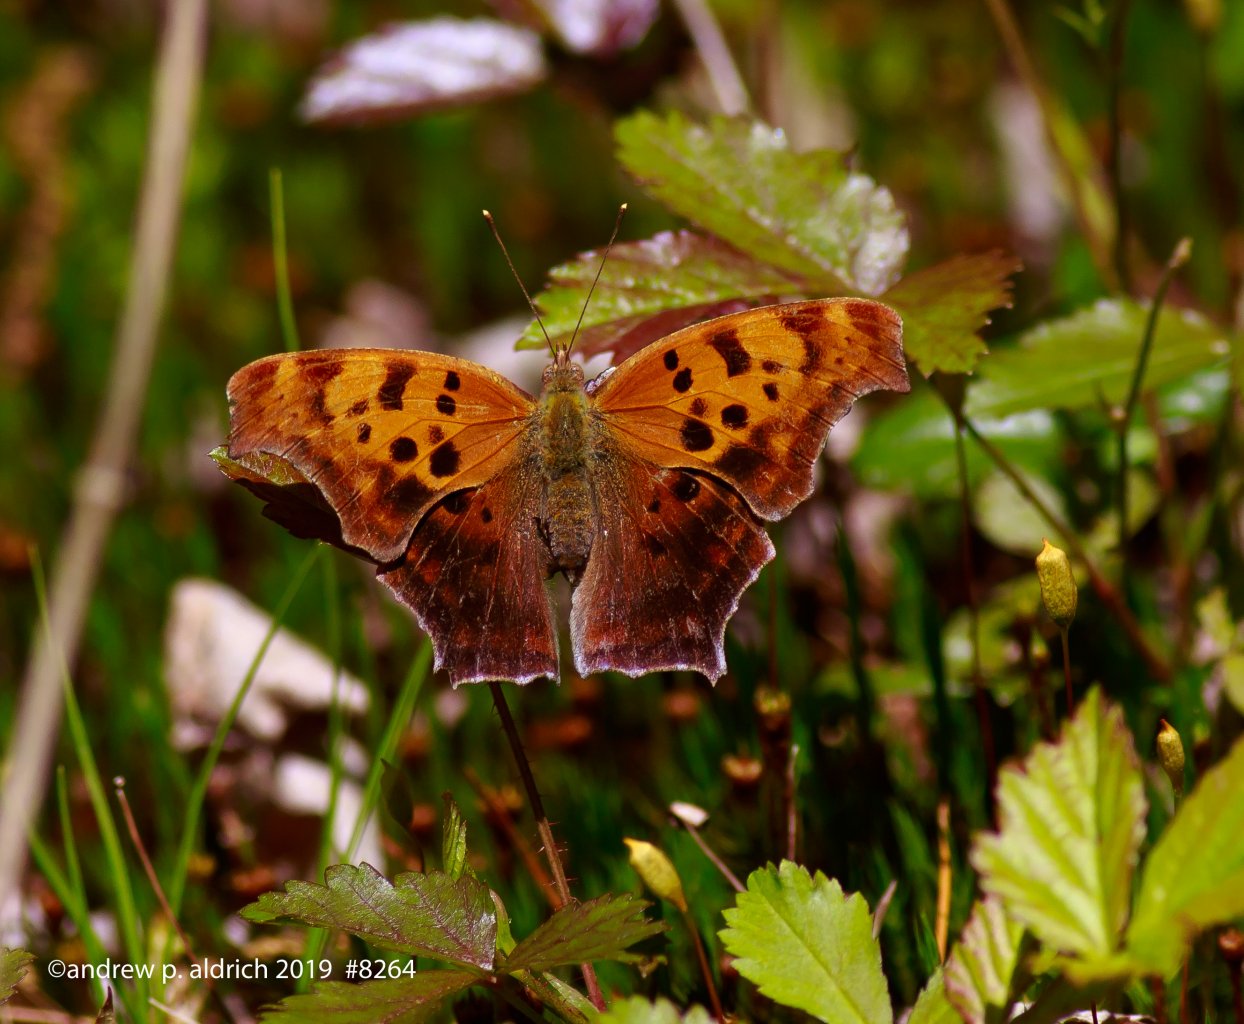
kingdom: Animalia
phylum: Arthropoda
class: Insecta
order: Lepidoptera
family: Nymphalidae
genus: Polygonia
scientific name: Polygonia interrogationis
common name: Question Mark
